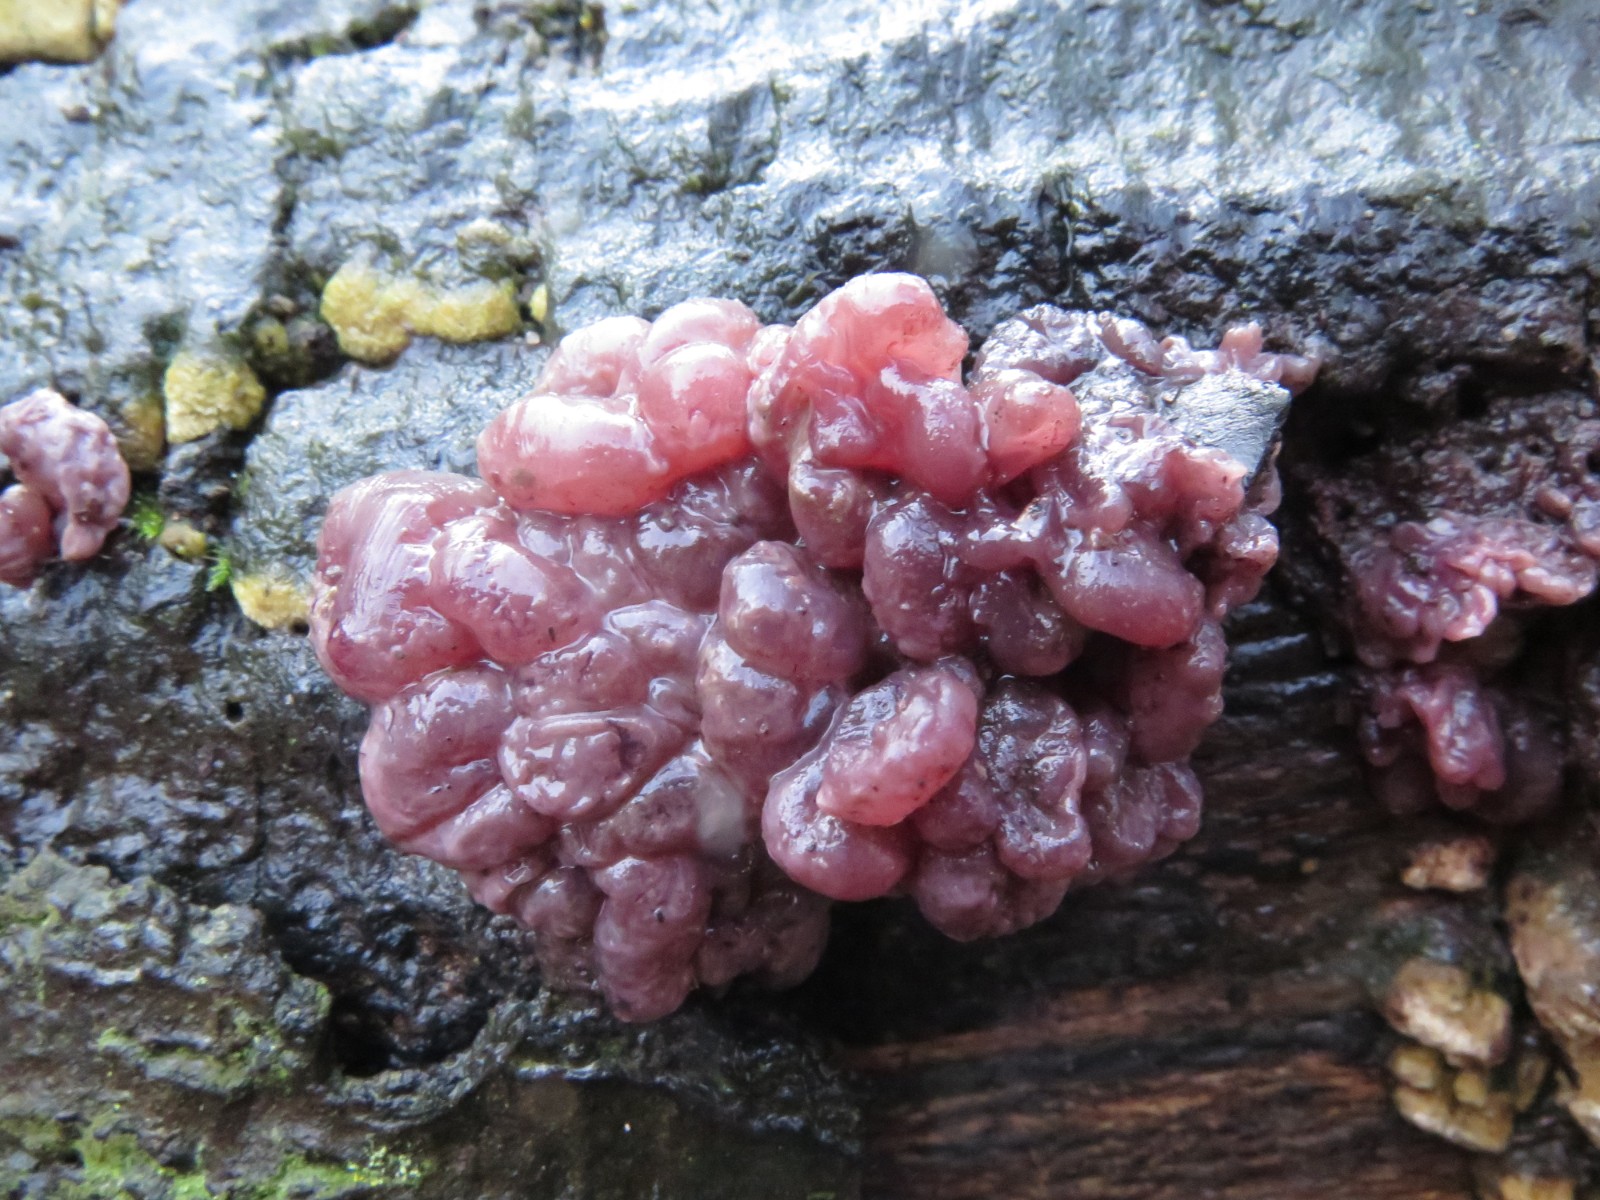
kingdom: Fungi
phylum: Ascomycota
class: Leotiomycetes
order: Helotiales
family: Gelatinodiscaceae
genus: Ascocoryne
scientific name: Ascocoryne sarcoides
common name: rødlilla sejskive
